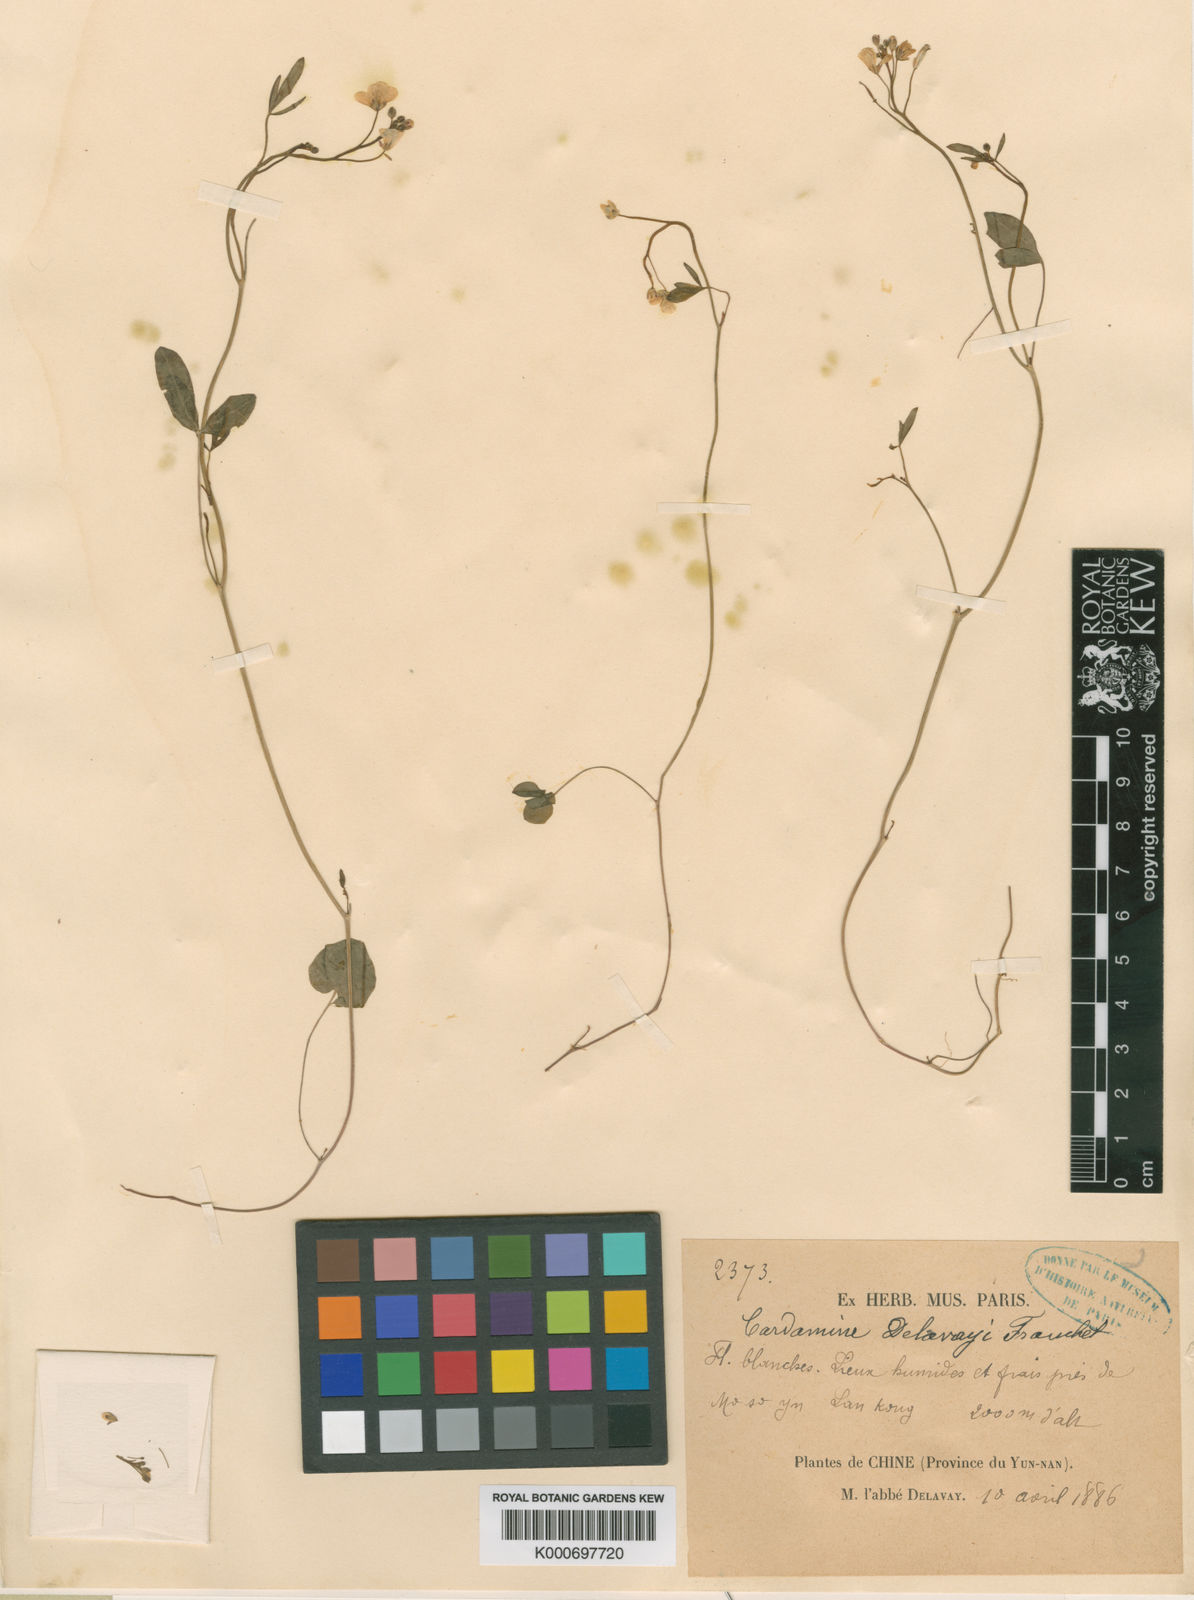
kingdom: Plantae
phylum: Tracheophyta
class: Magnoliopsida
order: Brassicales
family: Brassicaceae
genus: Cardamine
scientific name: Cardamine delavayi
